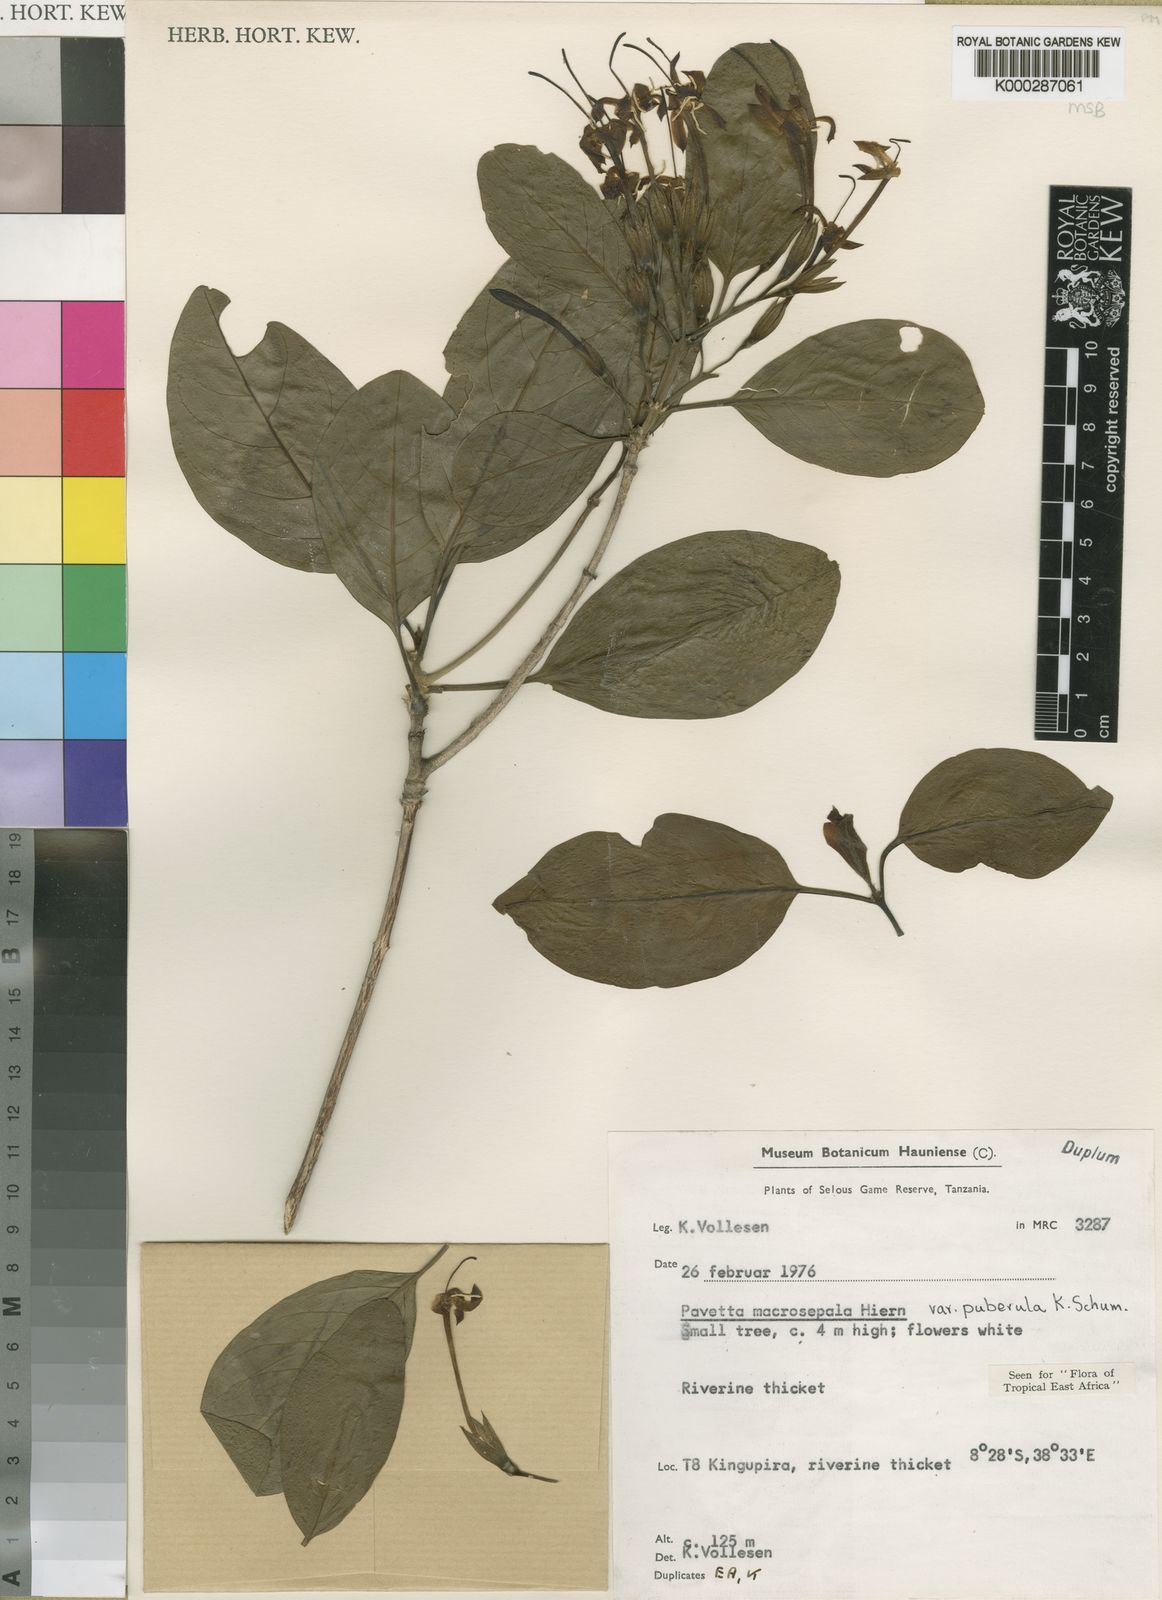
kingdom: Plantae
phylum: Tracheophyta
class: Magnoliopsida
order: Gentianales
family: Rubiaceae
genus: Pavetta
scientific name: Pavetta macrosepala
